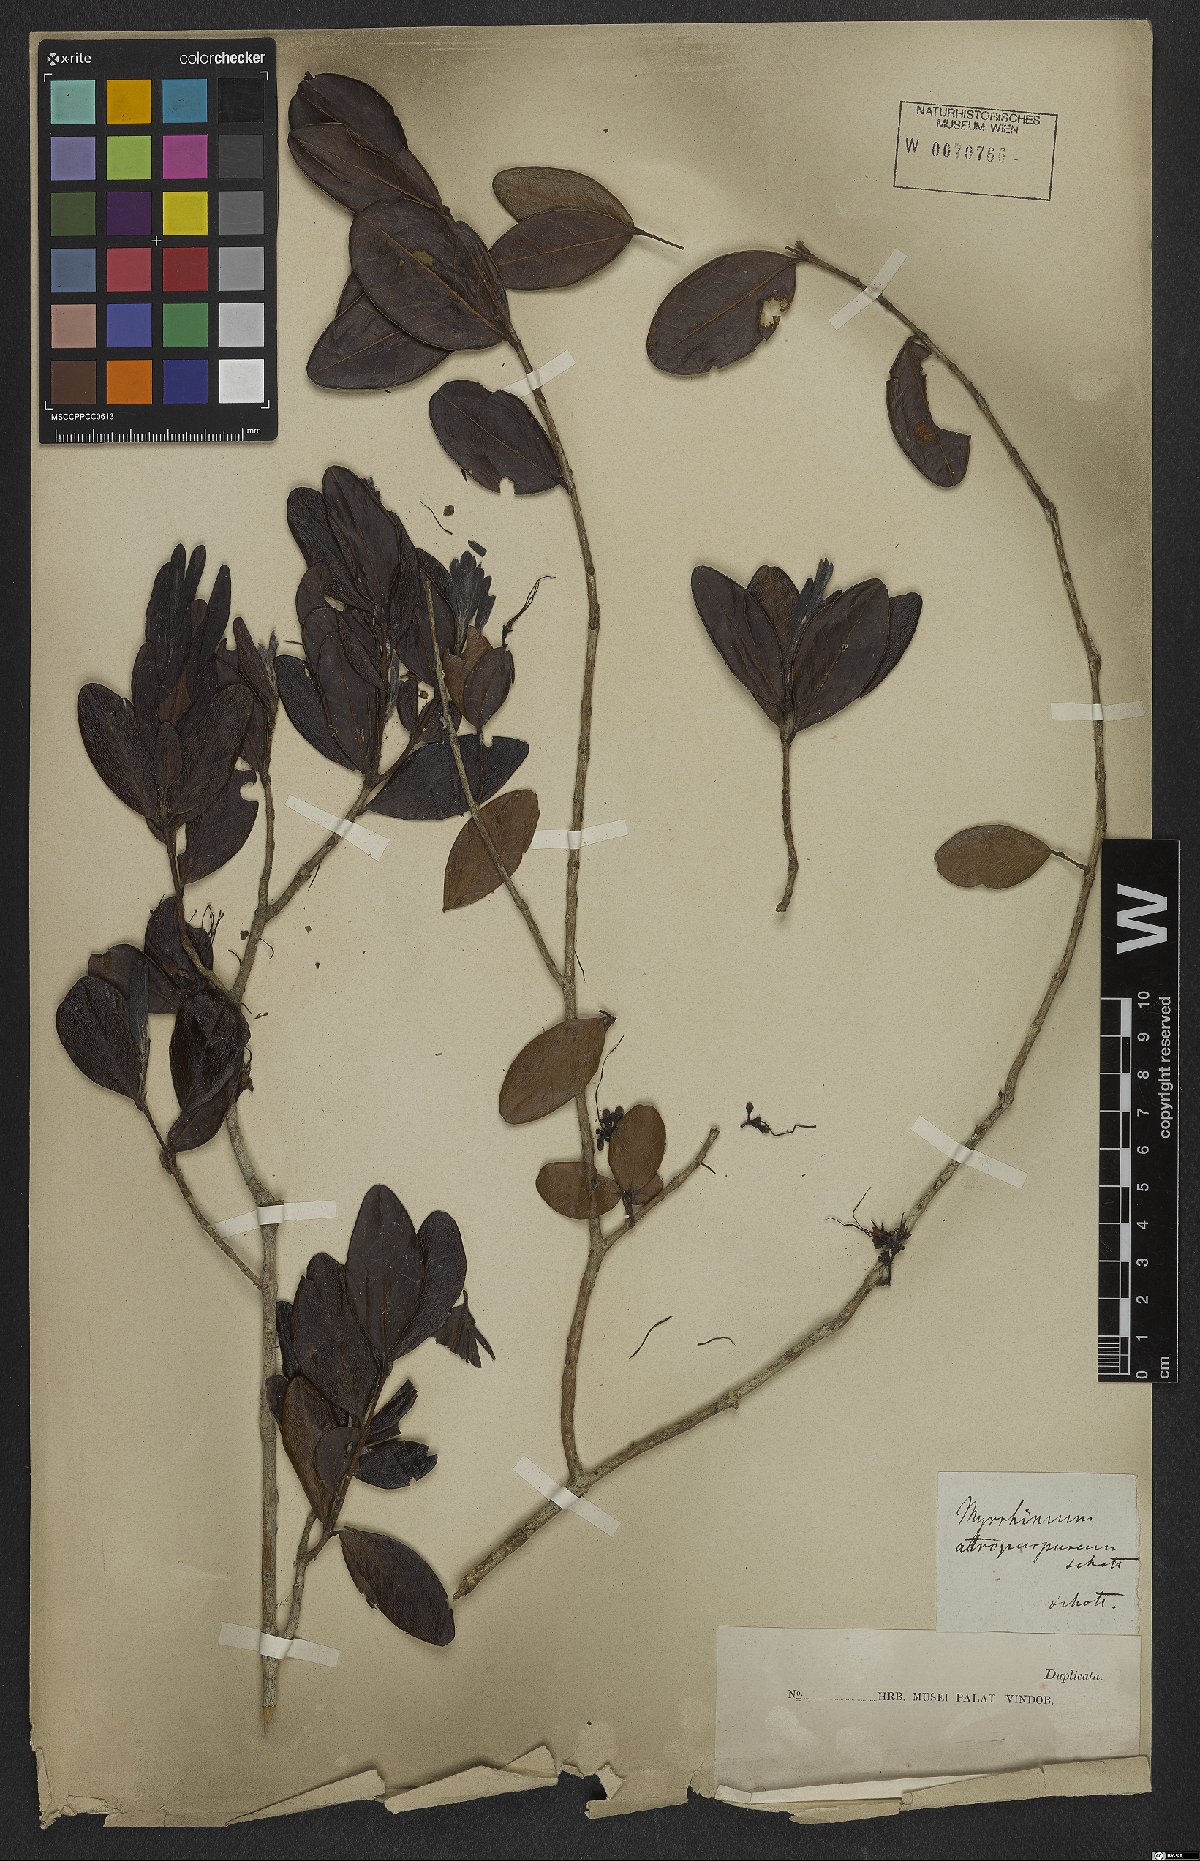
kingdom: Plantae
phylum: Tracheophyta
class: Magnoliopsida
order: Myrtales
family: Myrtaceae
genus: Myrrhinium
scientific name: Myrrhinium atropurpureum
